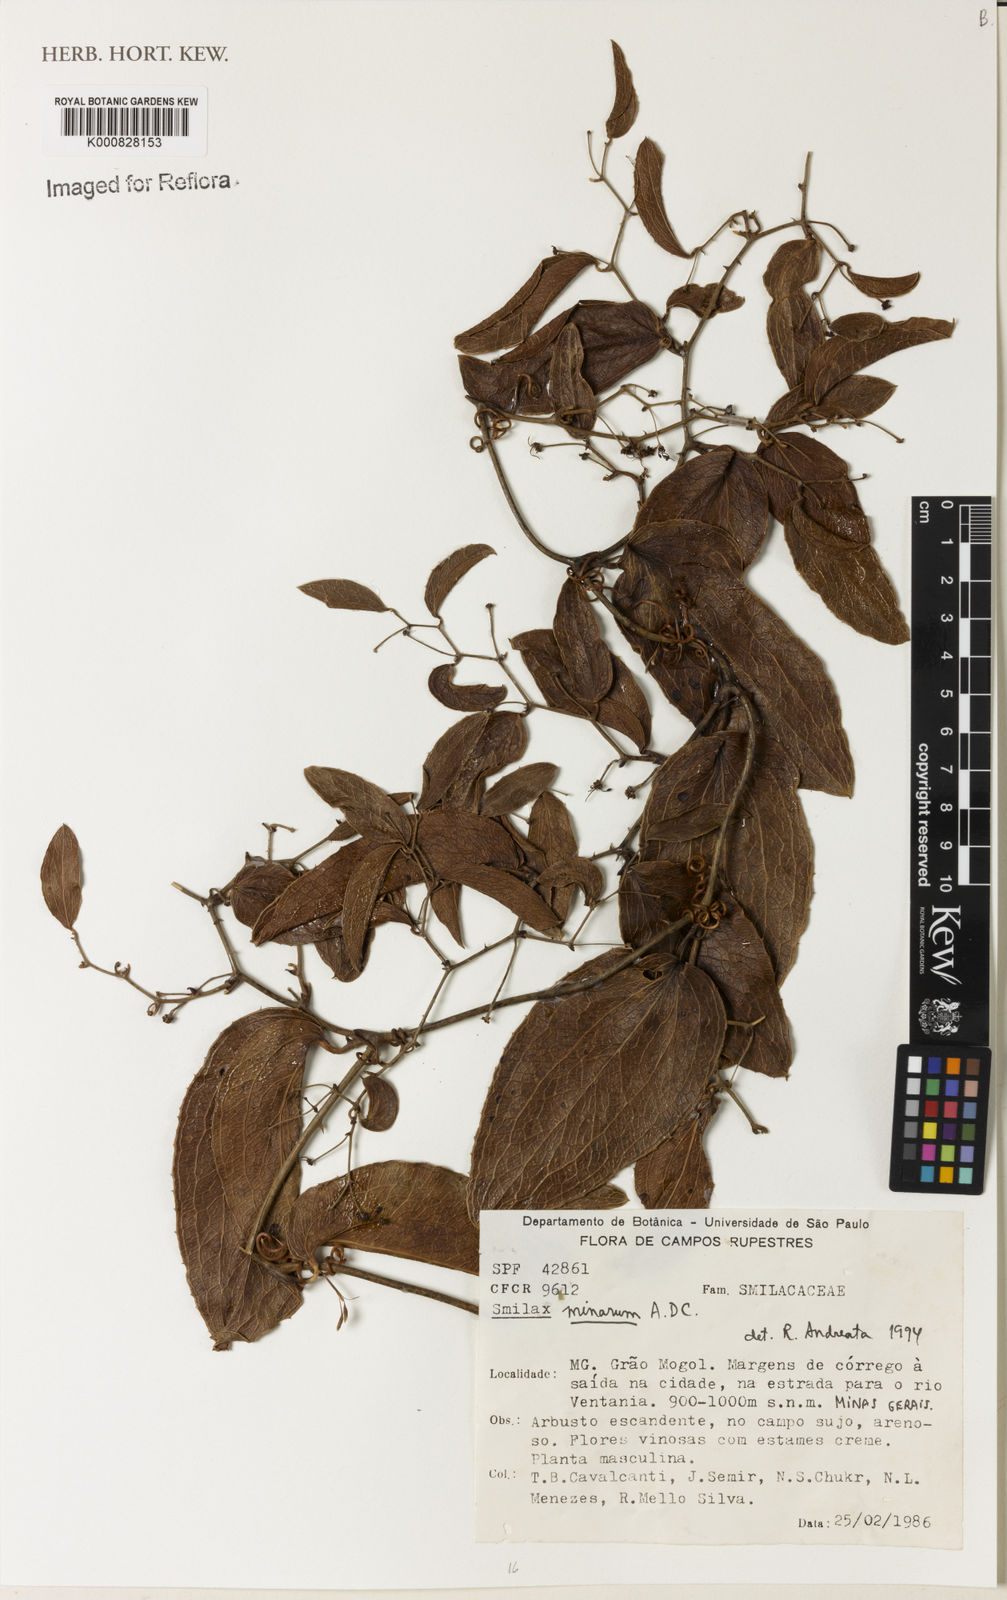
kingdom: Plantae
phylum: Tracheophyta
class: Liliopsida
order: Liliales
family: Smilacaceae
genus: Smilax
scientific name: Smilax minarum
